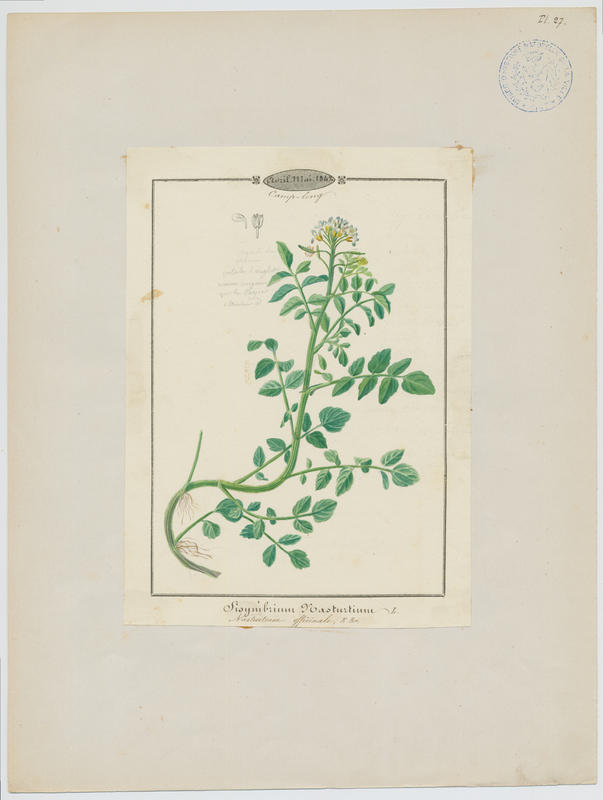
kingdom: Plantae
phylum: Tracheophyta
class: Magnoliopsida
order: Brassicales
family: Brassicaceae
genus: Nasturtium
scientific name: Nasturtium officinale
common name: Watercress
